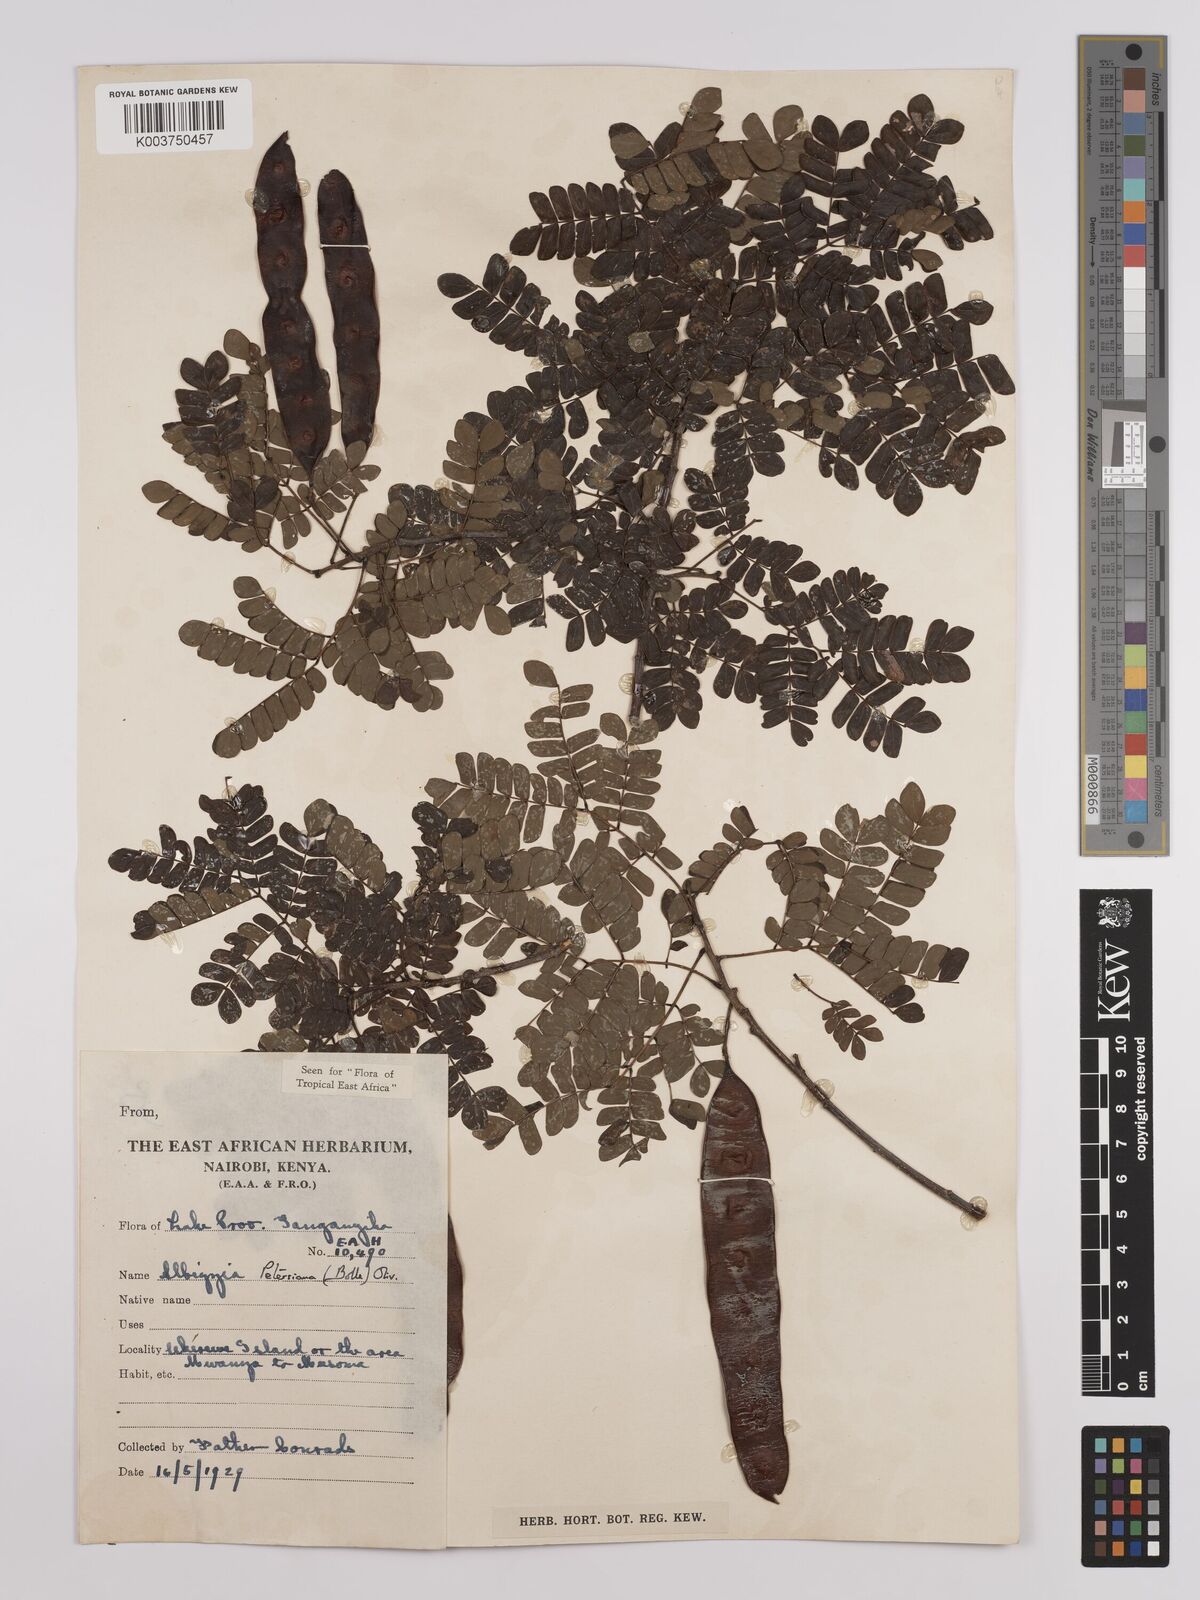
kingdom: Plantae
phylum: Tracheophyta
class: Magnoliopsida
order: Fabales
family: Fabaceae
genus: Albizia
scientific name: Albizia petersiana
